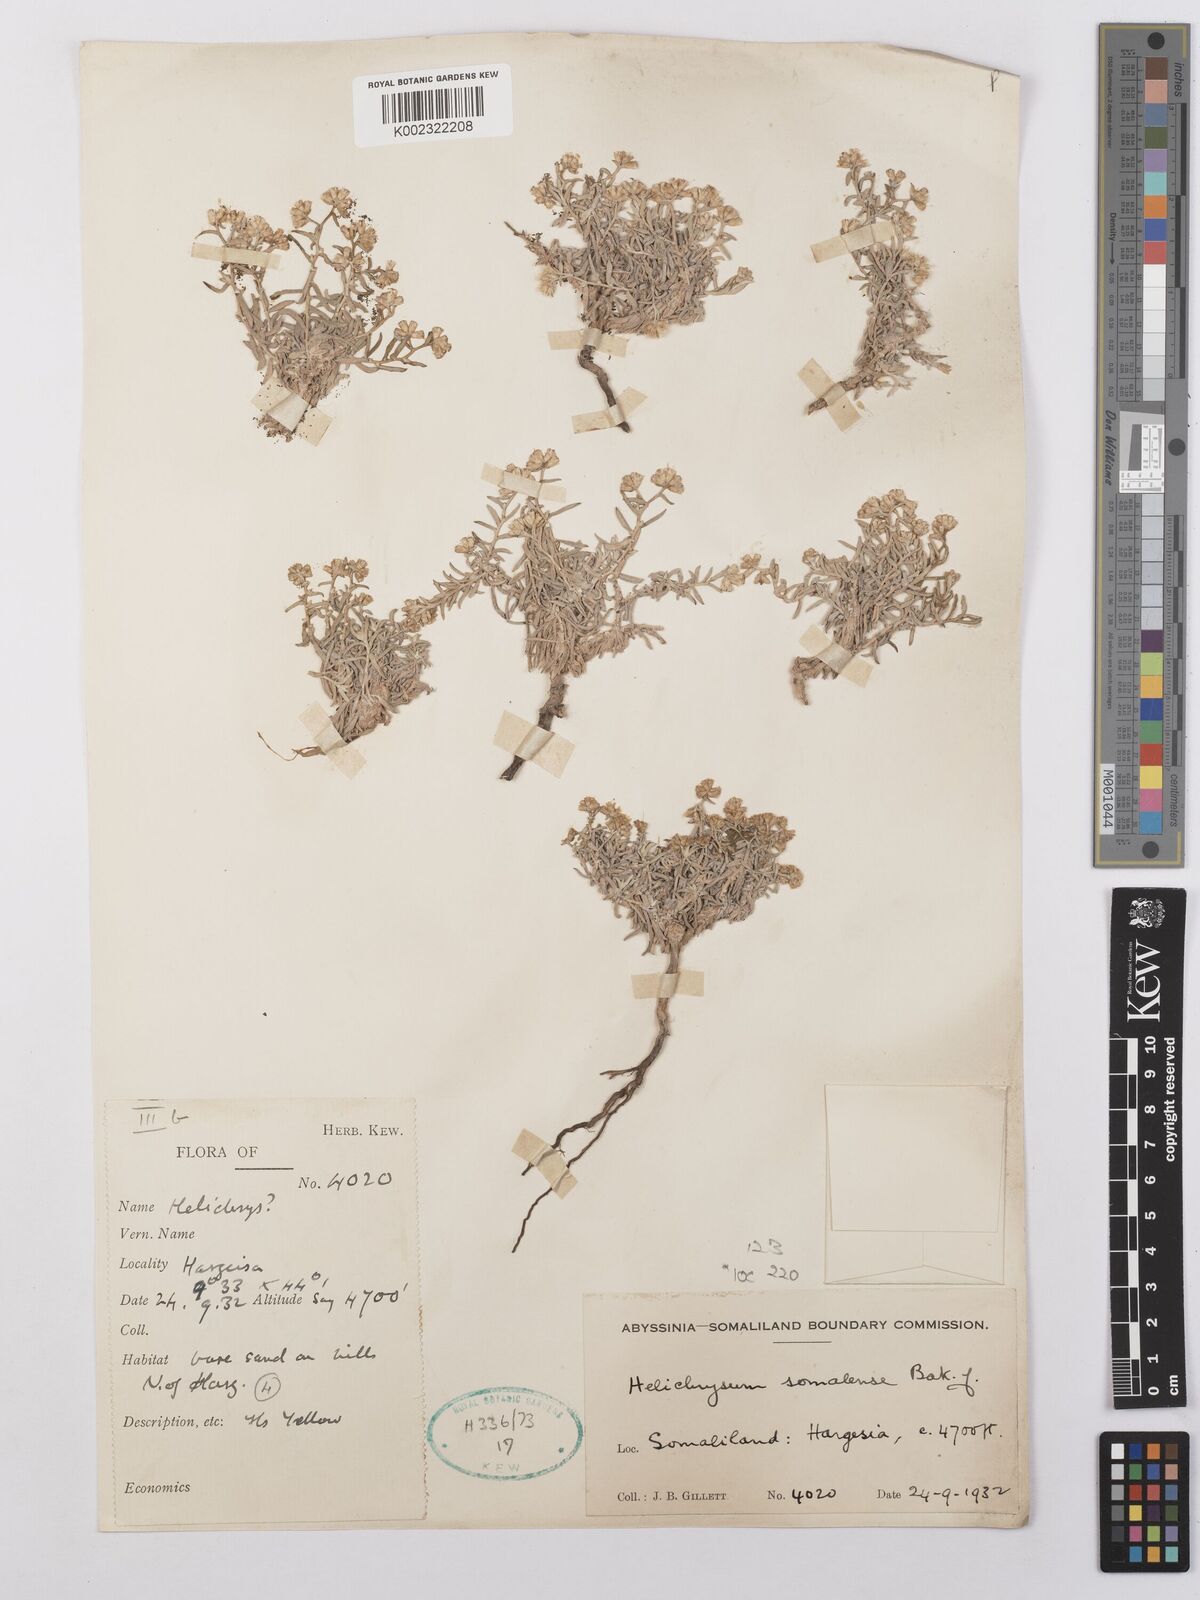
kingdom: Plantae
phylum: Tracheophyta
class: Magnoliopsida
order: Asterales
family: Asteraceae
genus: Helichrysum
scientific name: Helichrysum somalense
